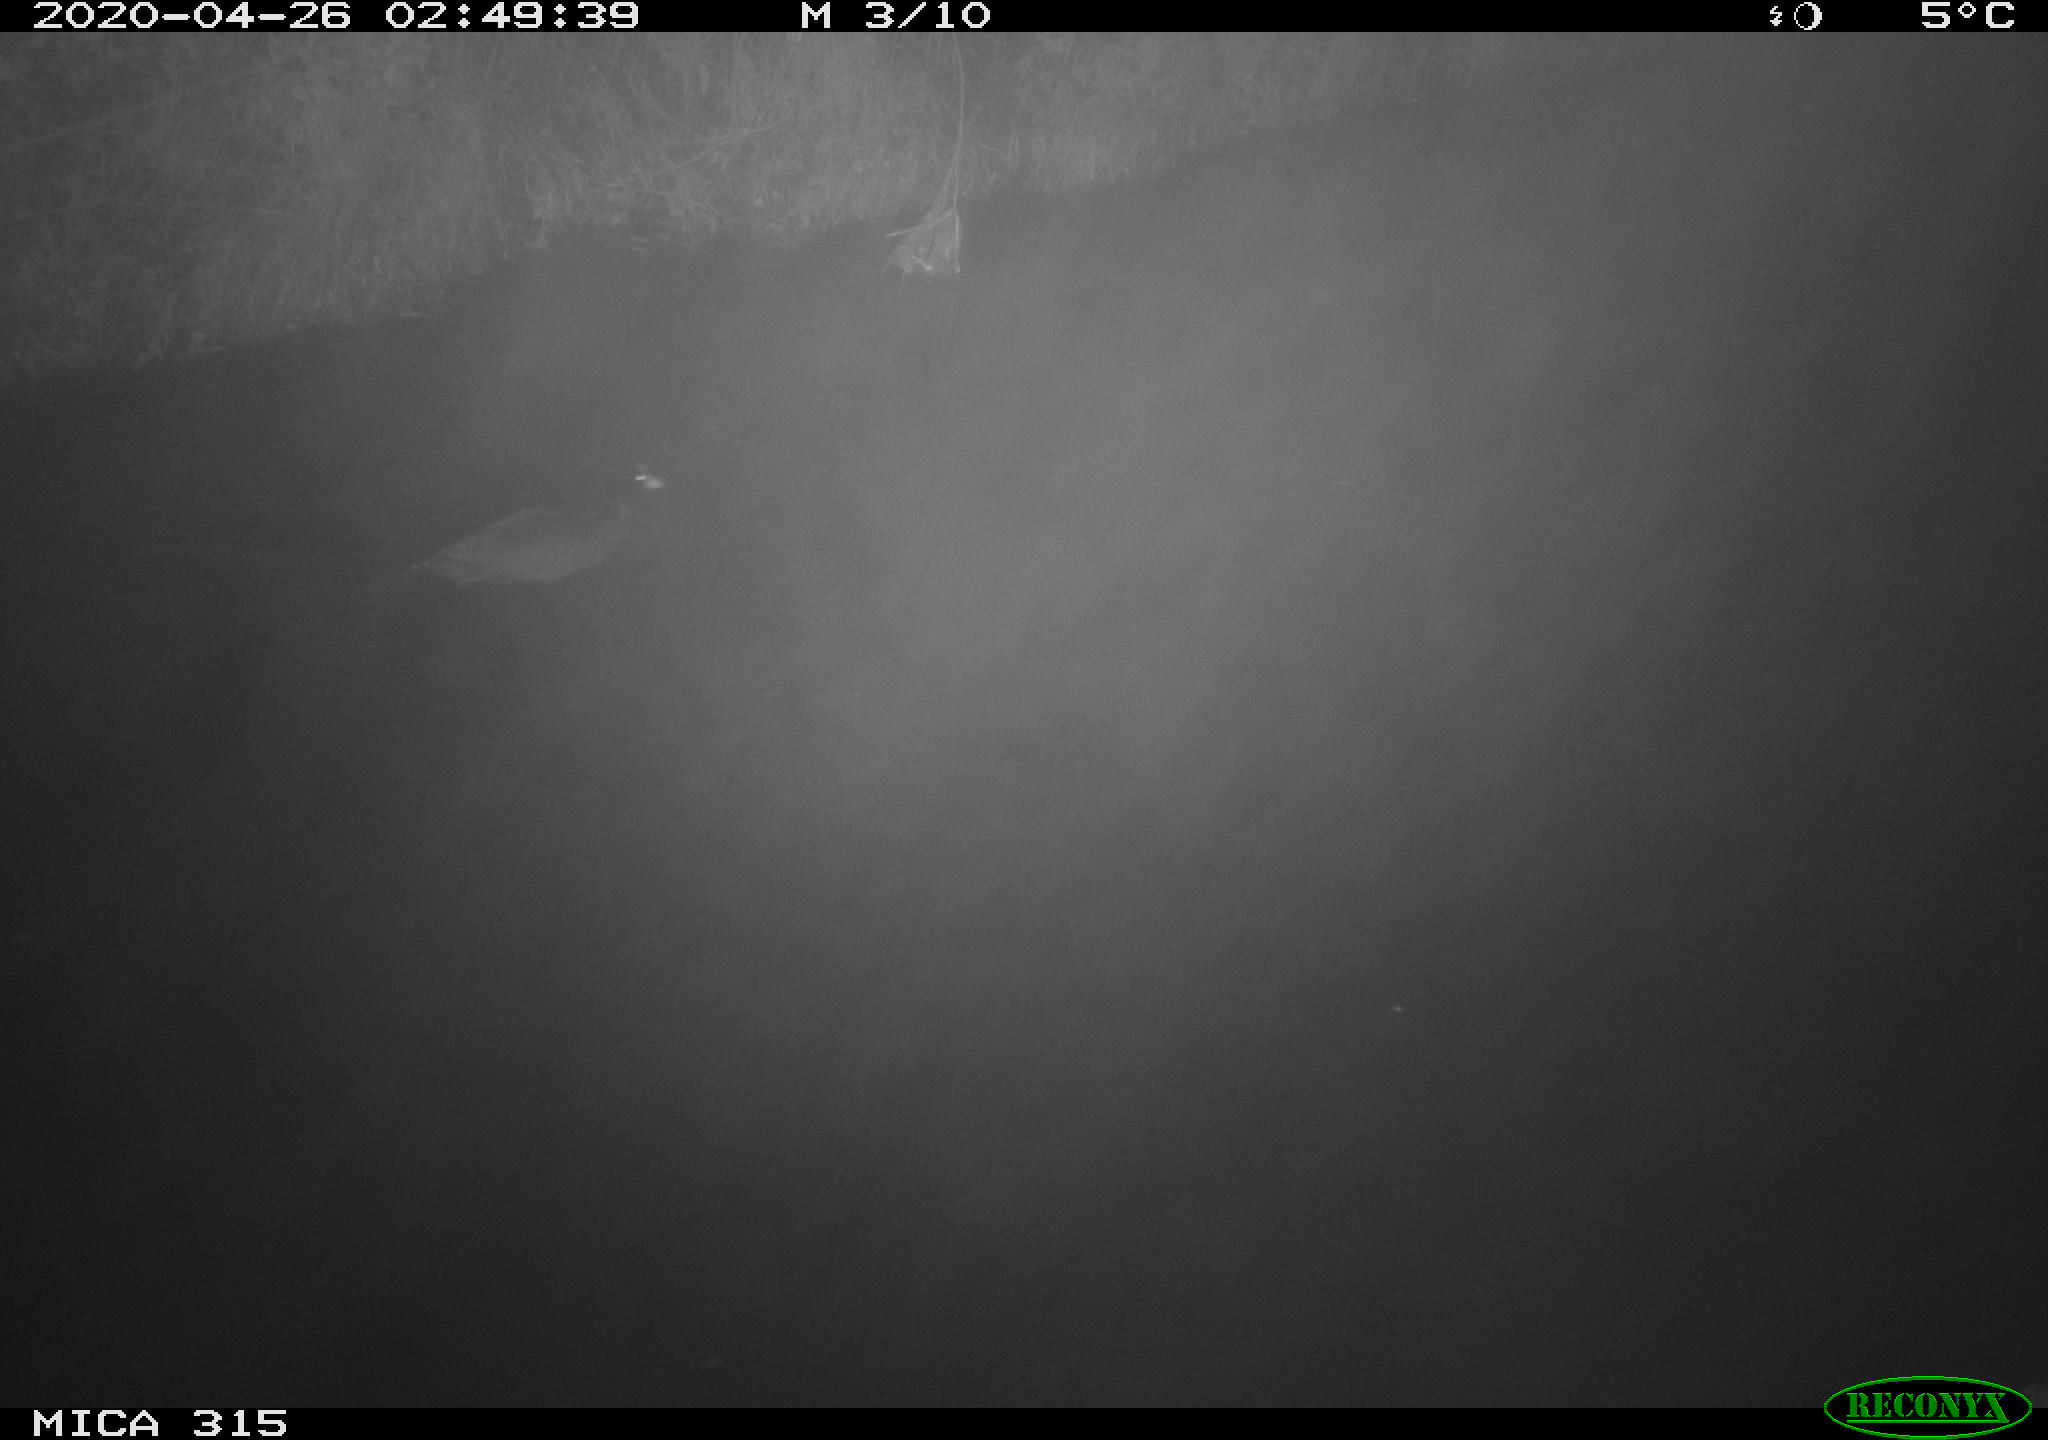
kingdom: Animalia
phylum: Chordata
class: Aves
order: Gruiformes
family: Rallidae
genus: Gallinula
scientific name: Gallinula chloropus
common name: Common moorhen
